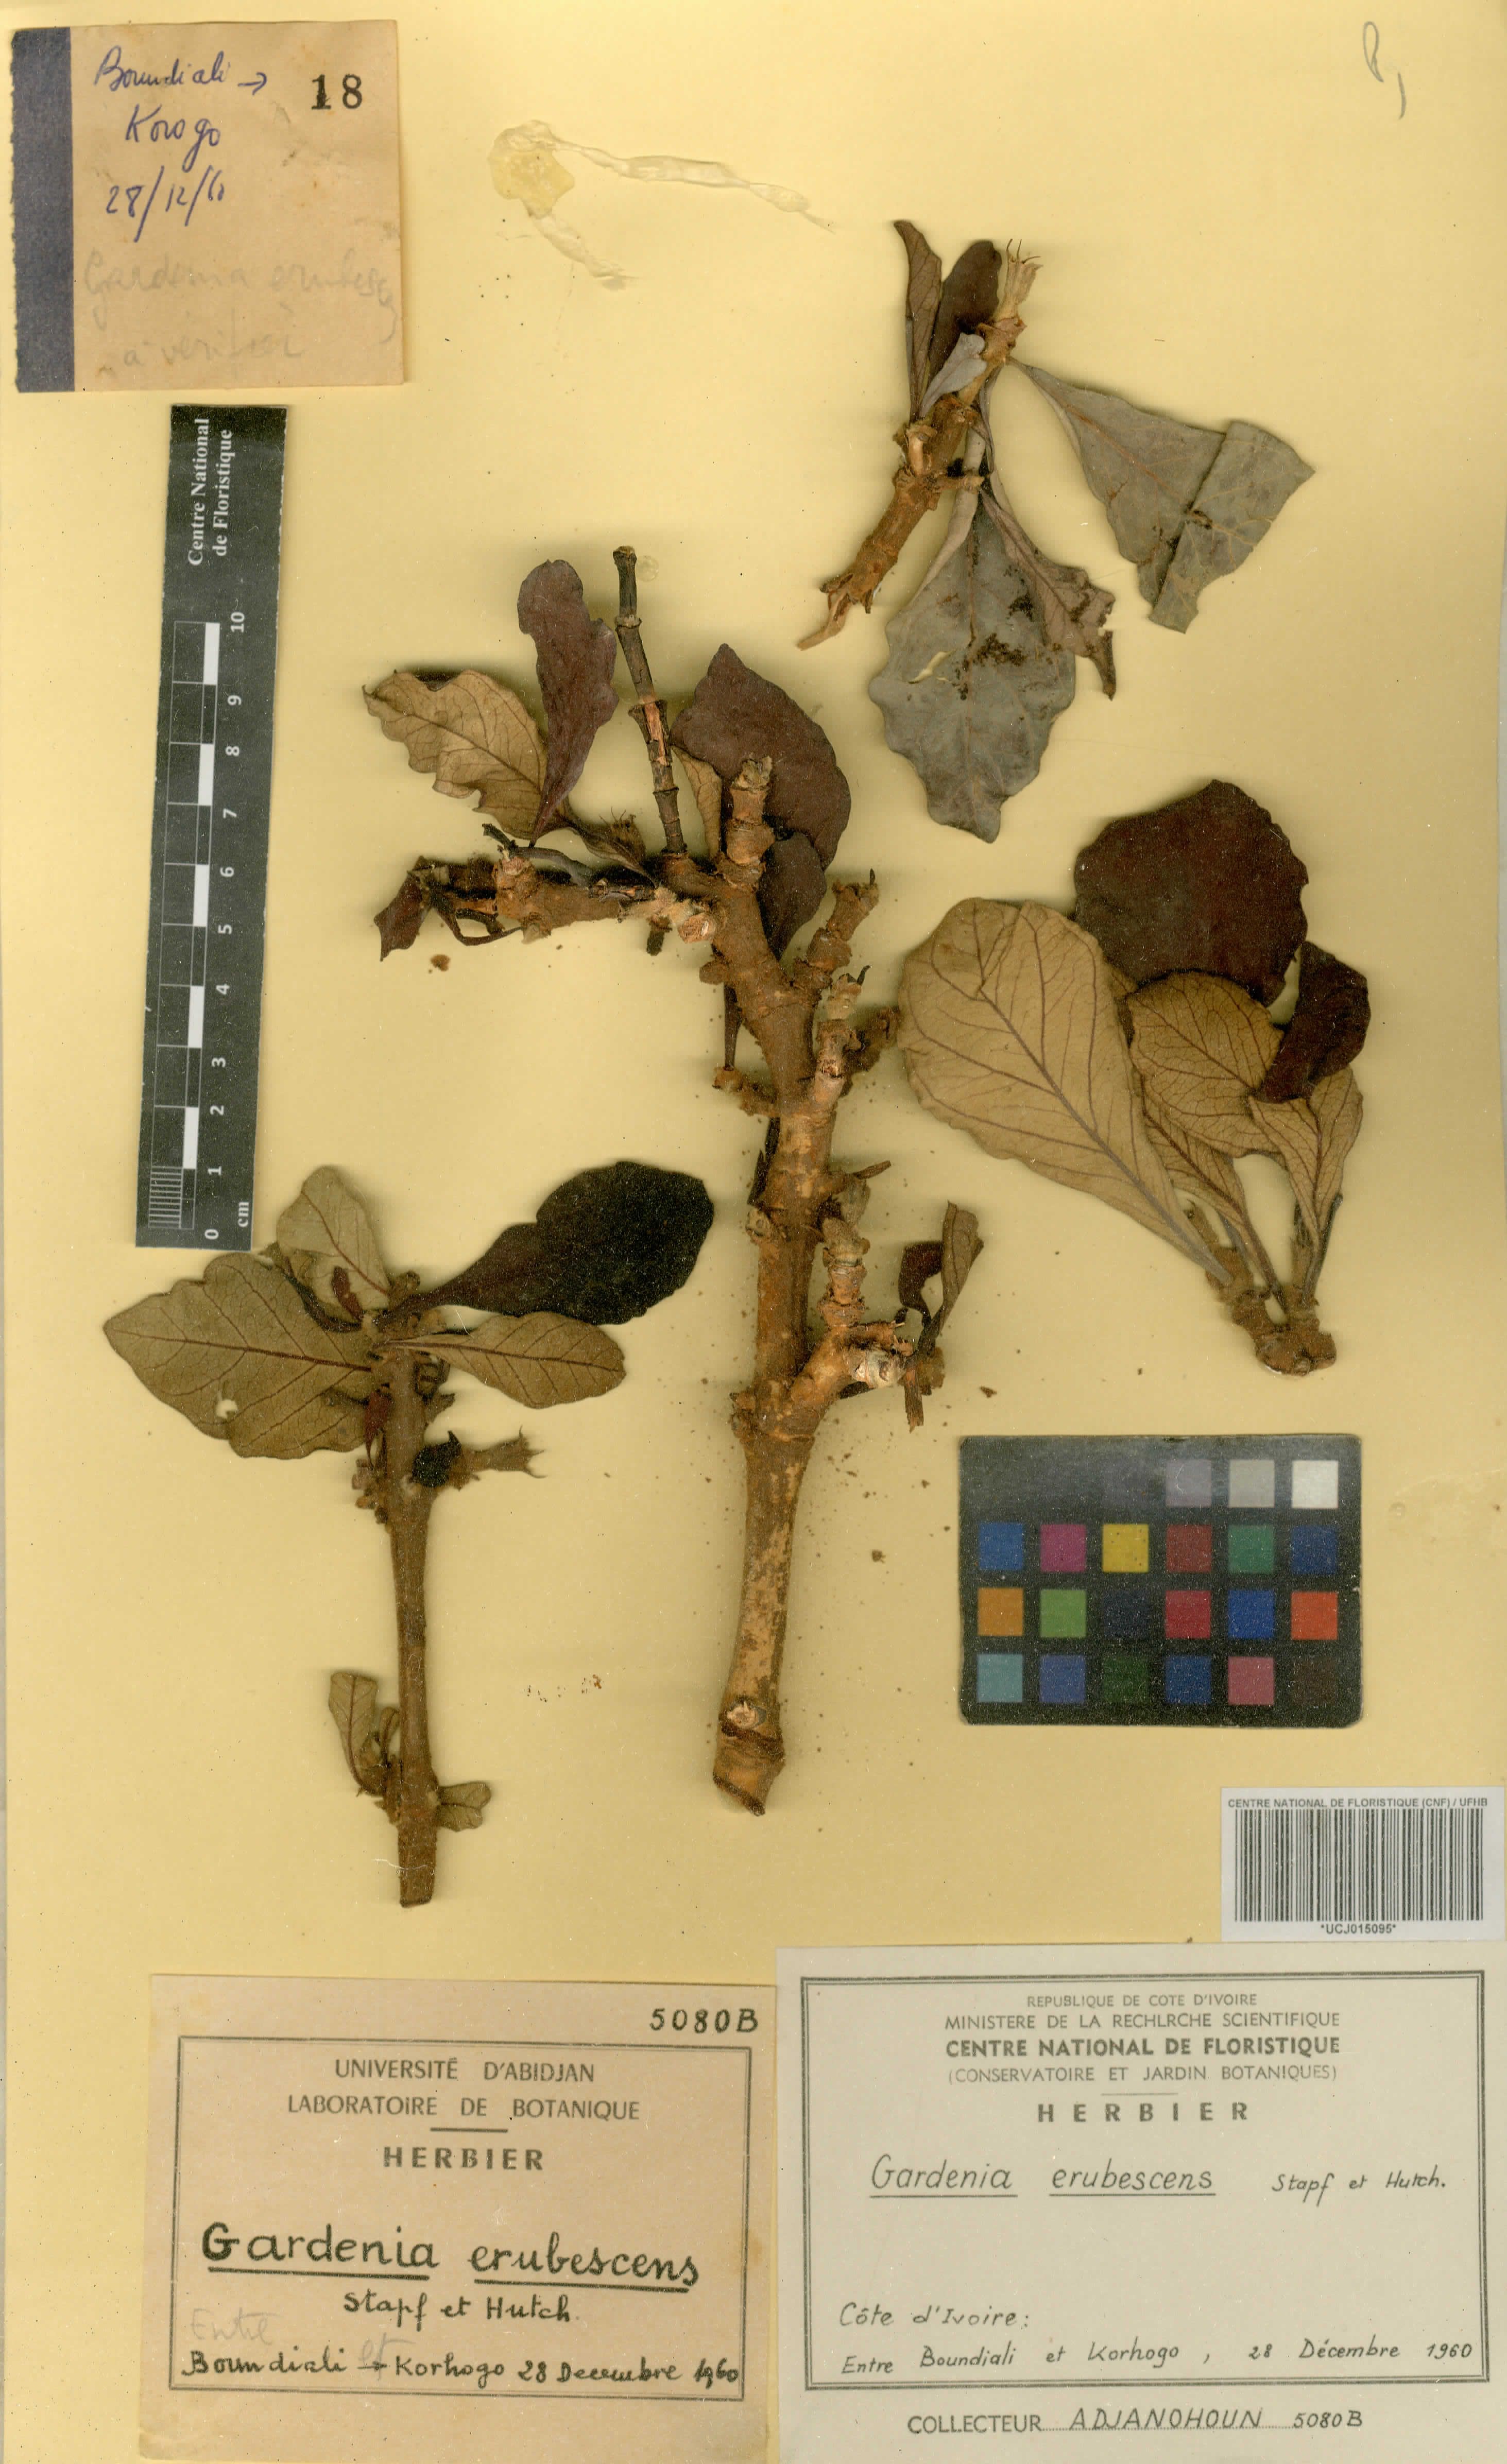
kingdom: Plantae
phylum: Tracheophyta
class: Magnoliopsida
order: Gentianales
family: Rubiaceae
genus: Gardenia
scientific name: Gardenia erubescens
